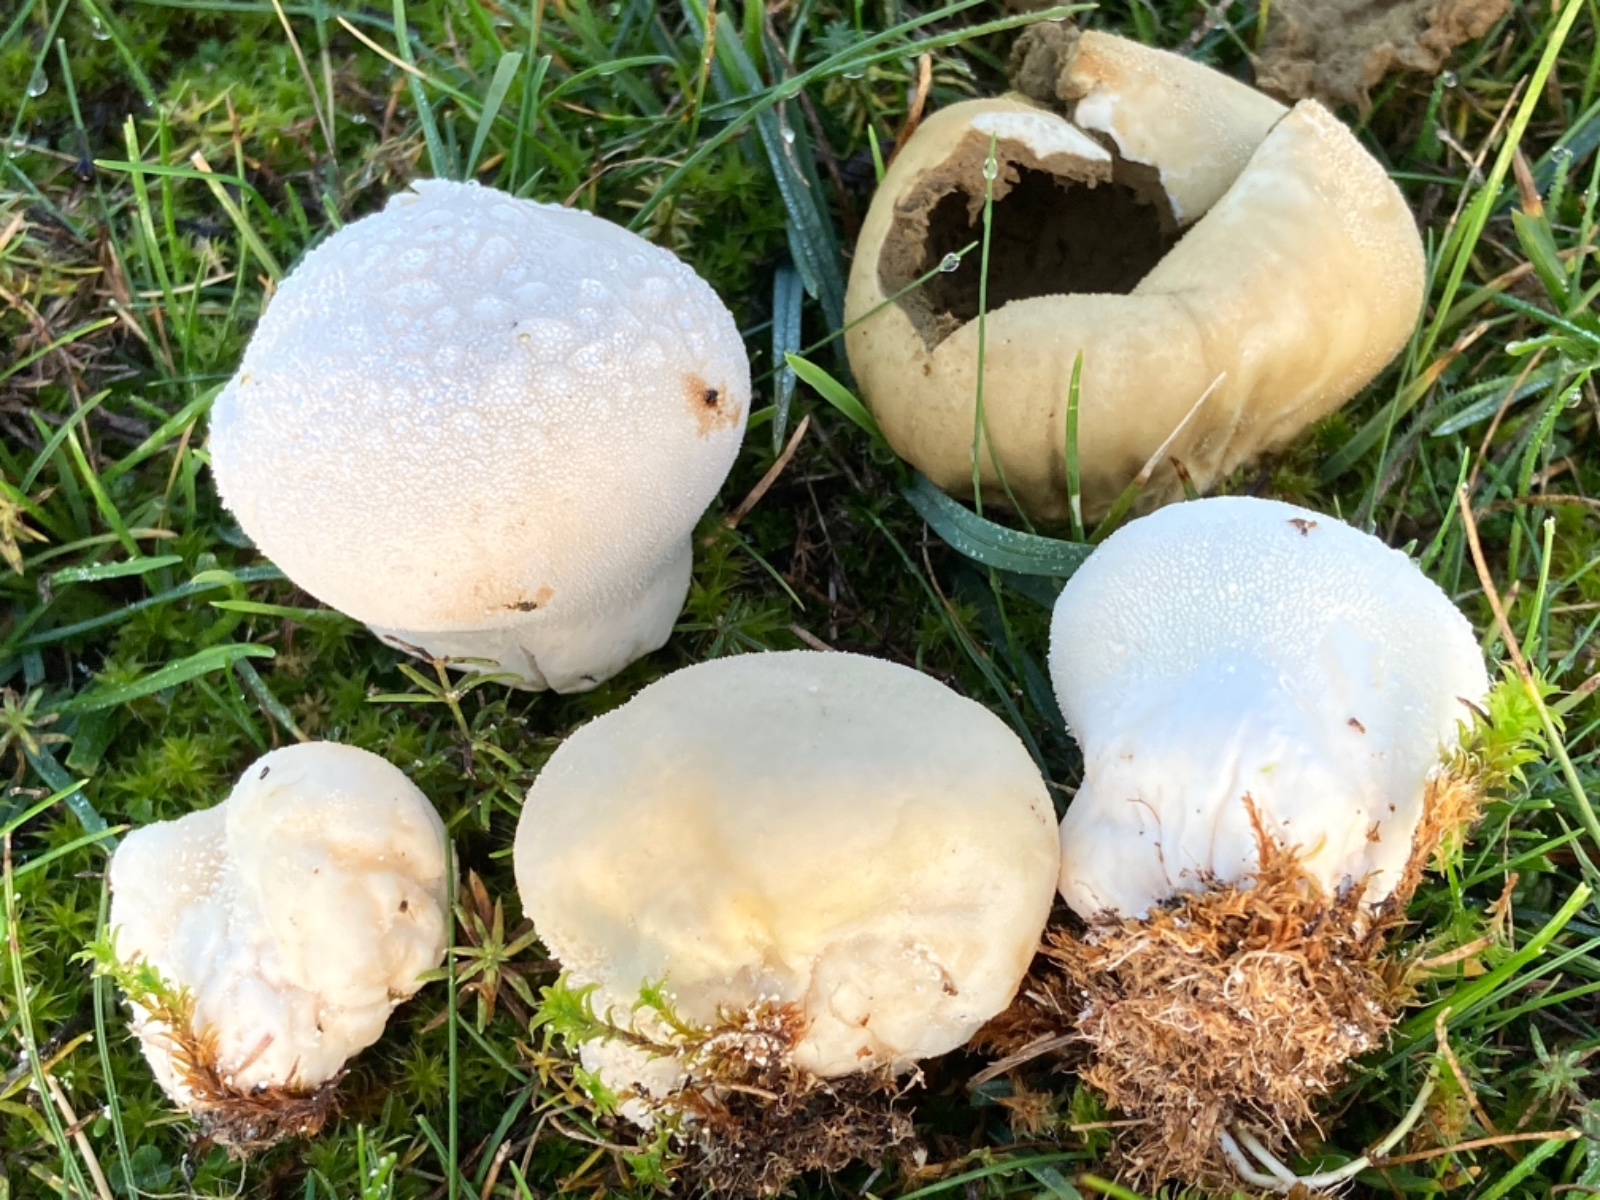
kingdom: Fungi
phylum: Basidiomycota
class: Agaricomycetes
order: Agaricales
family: Lycoperdaceae
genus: Lycoperdon
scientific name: Lycoperdon pratense
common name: flad støvbold
